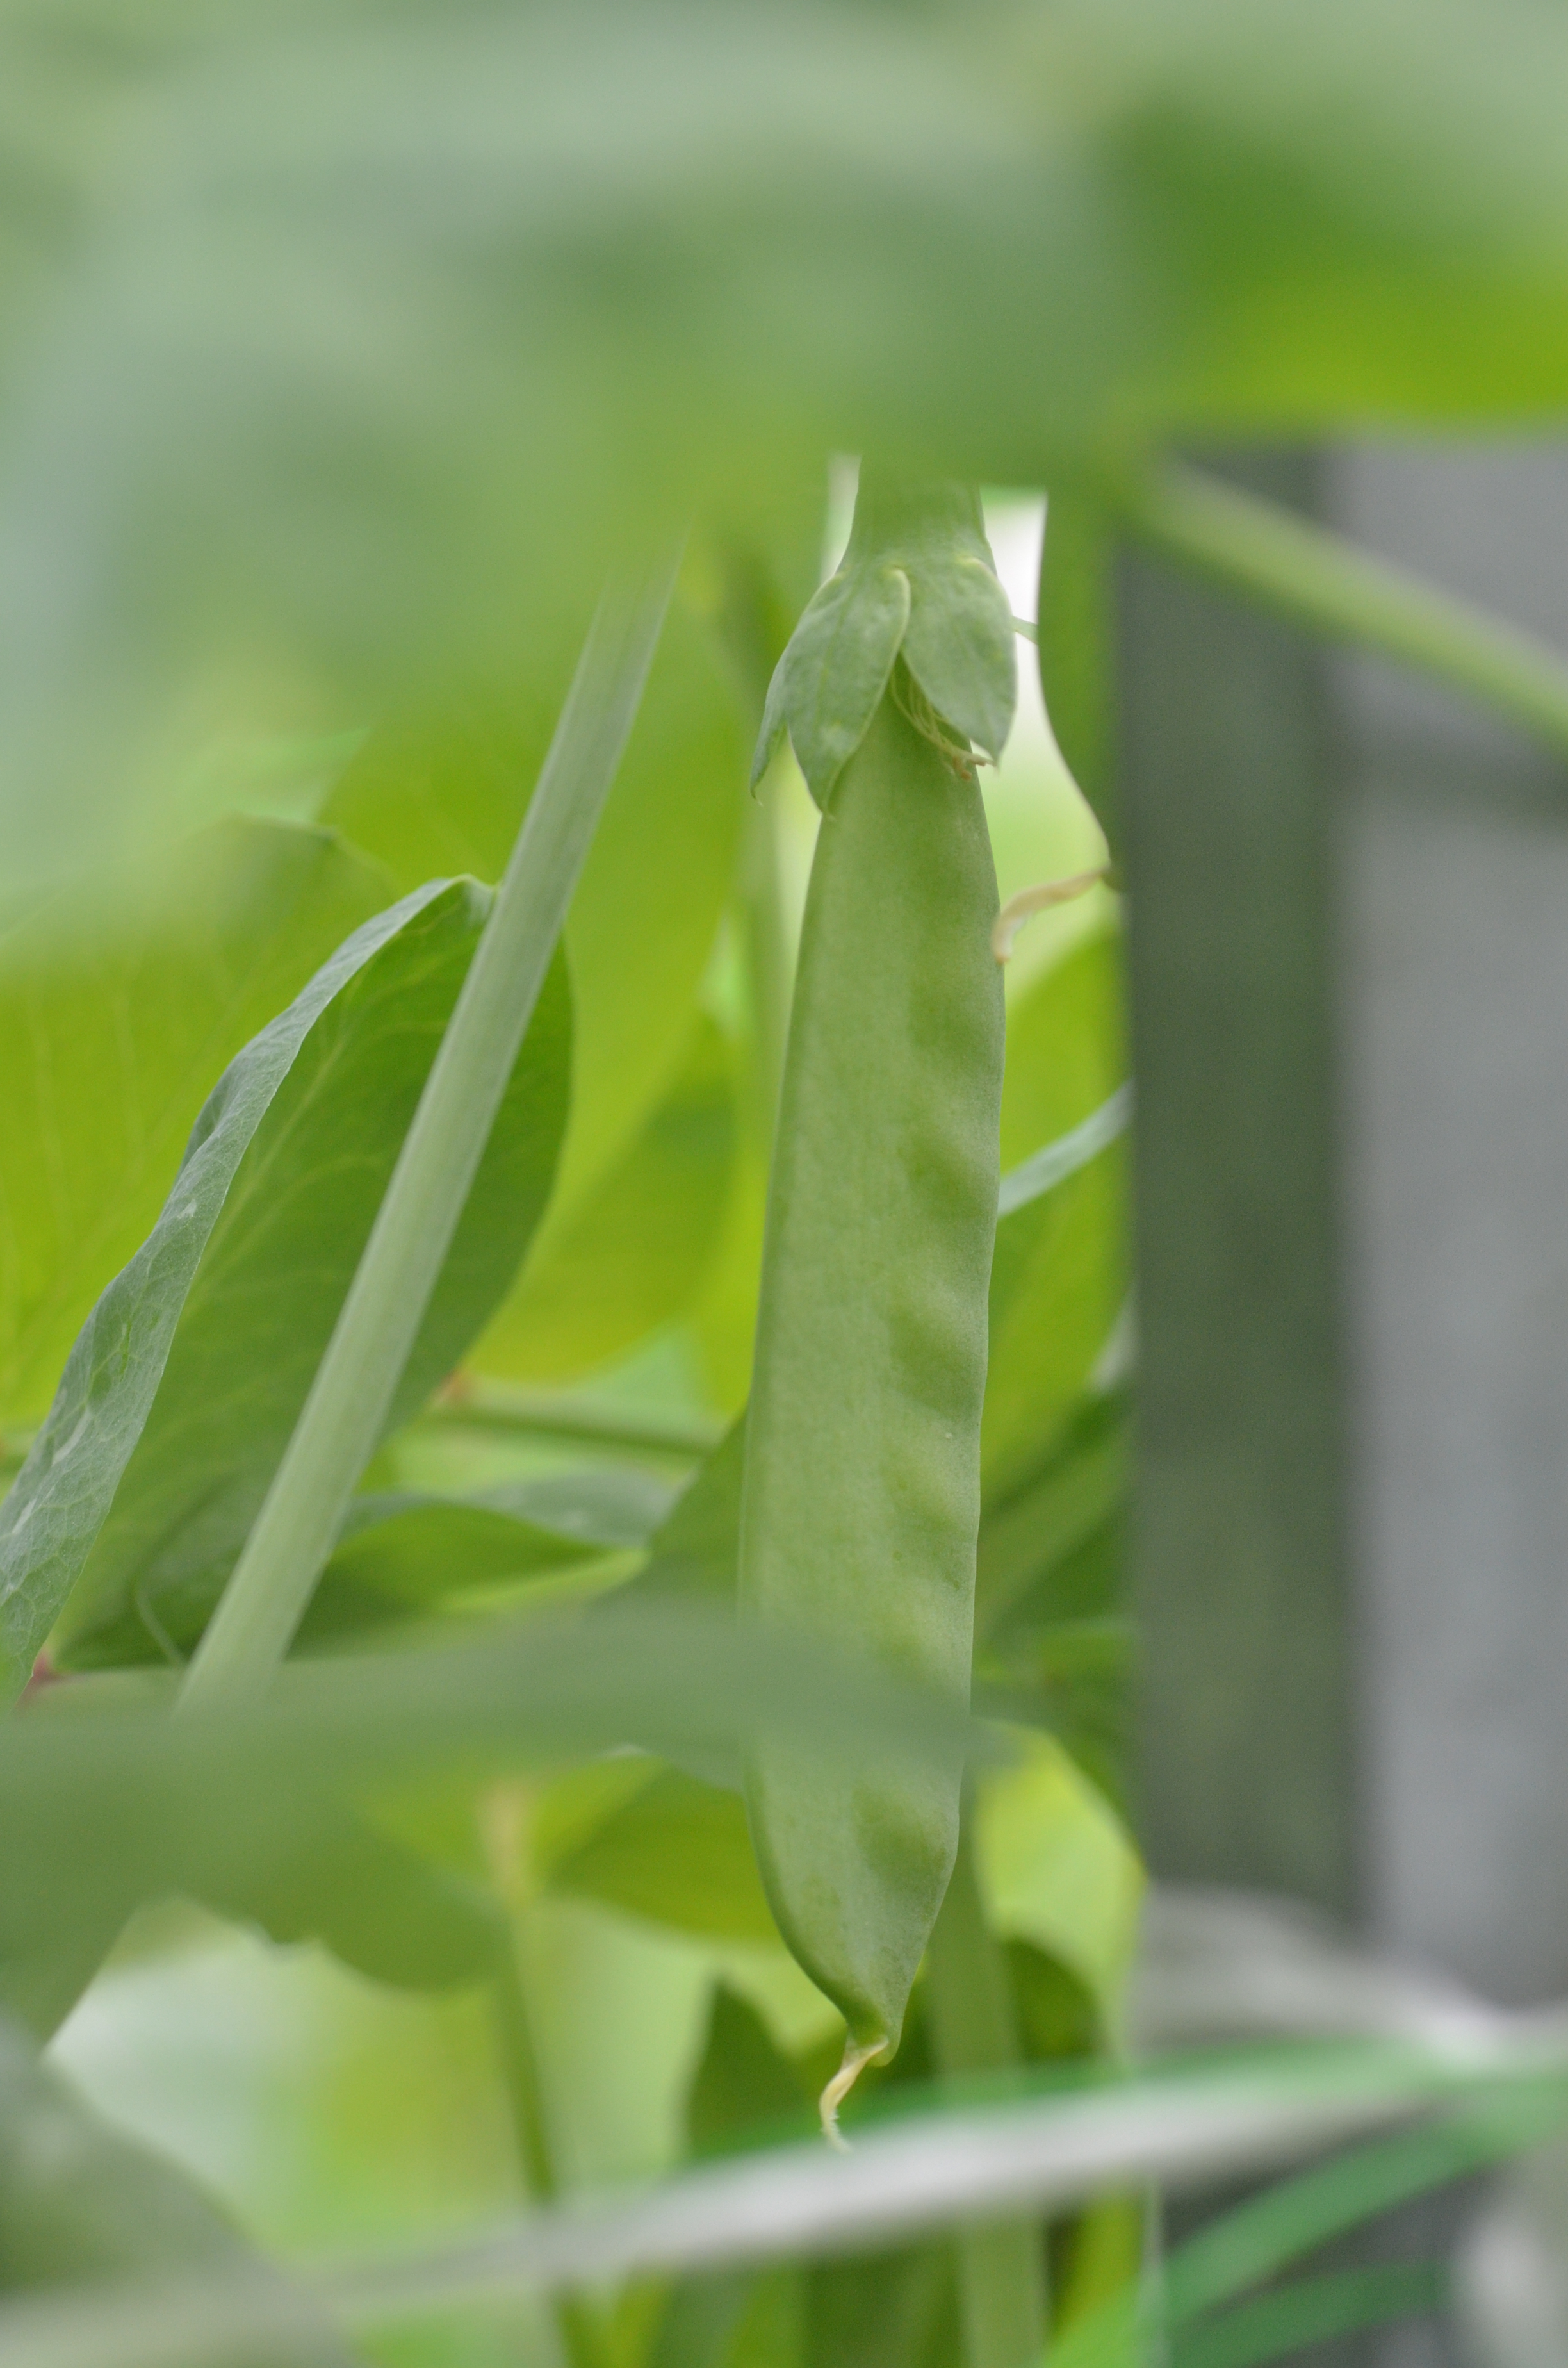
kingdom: Plantae
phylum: Tracheophyta
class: Magnoliopsida
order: Fabales
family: Fabaceae
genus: Lathyrus
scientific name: Lathyrus oleraceus
